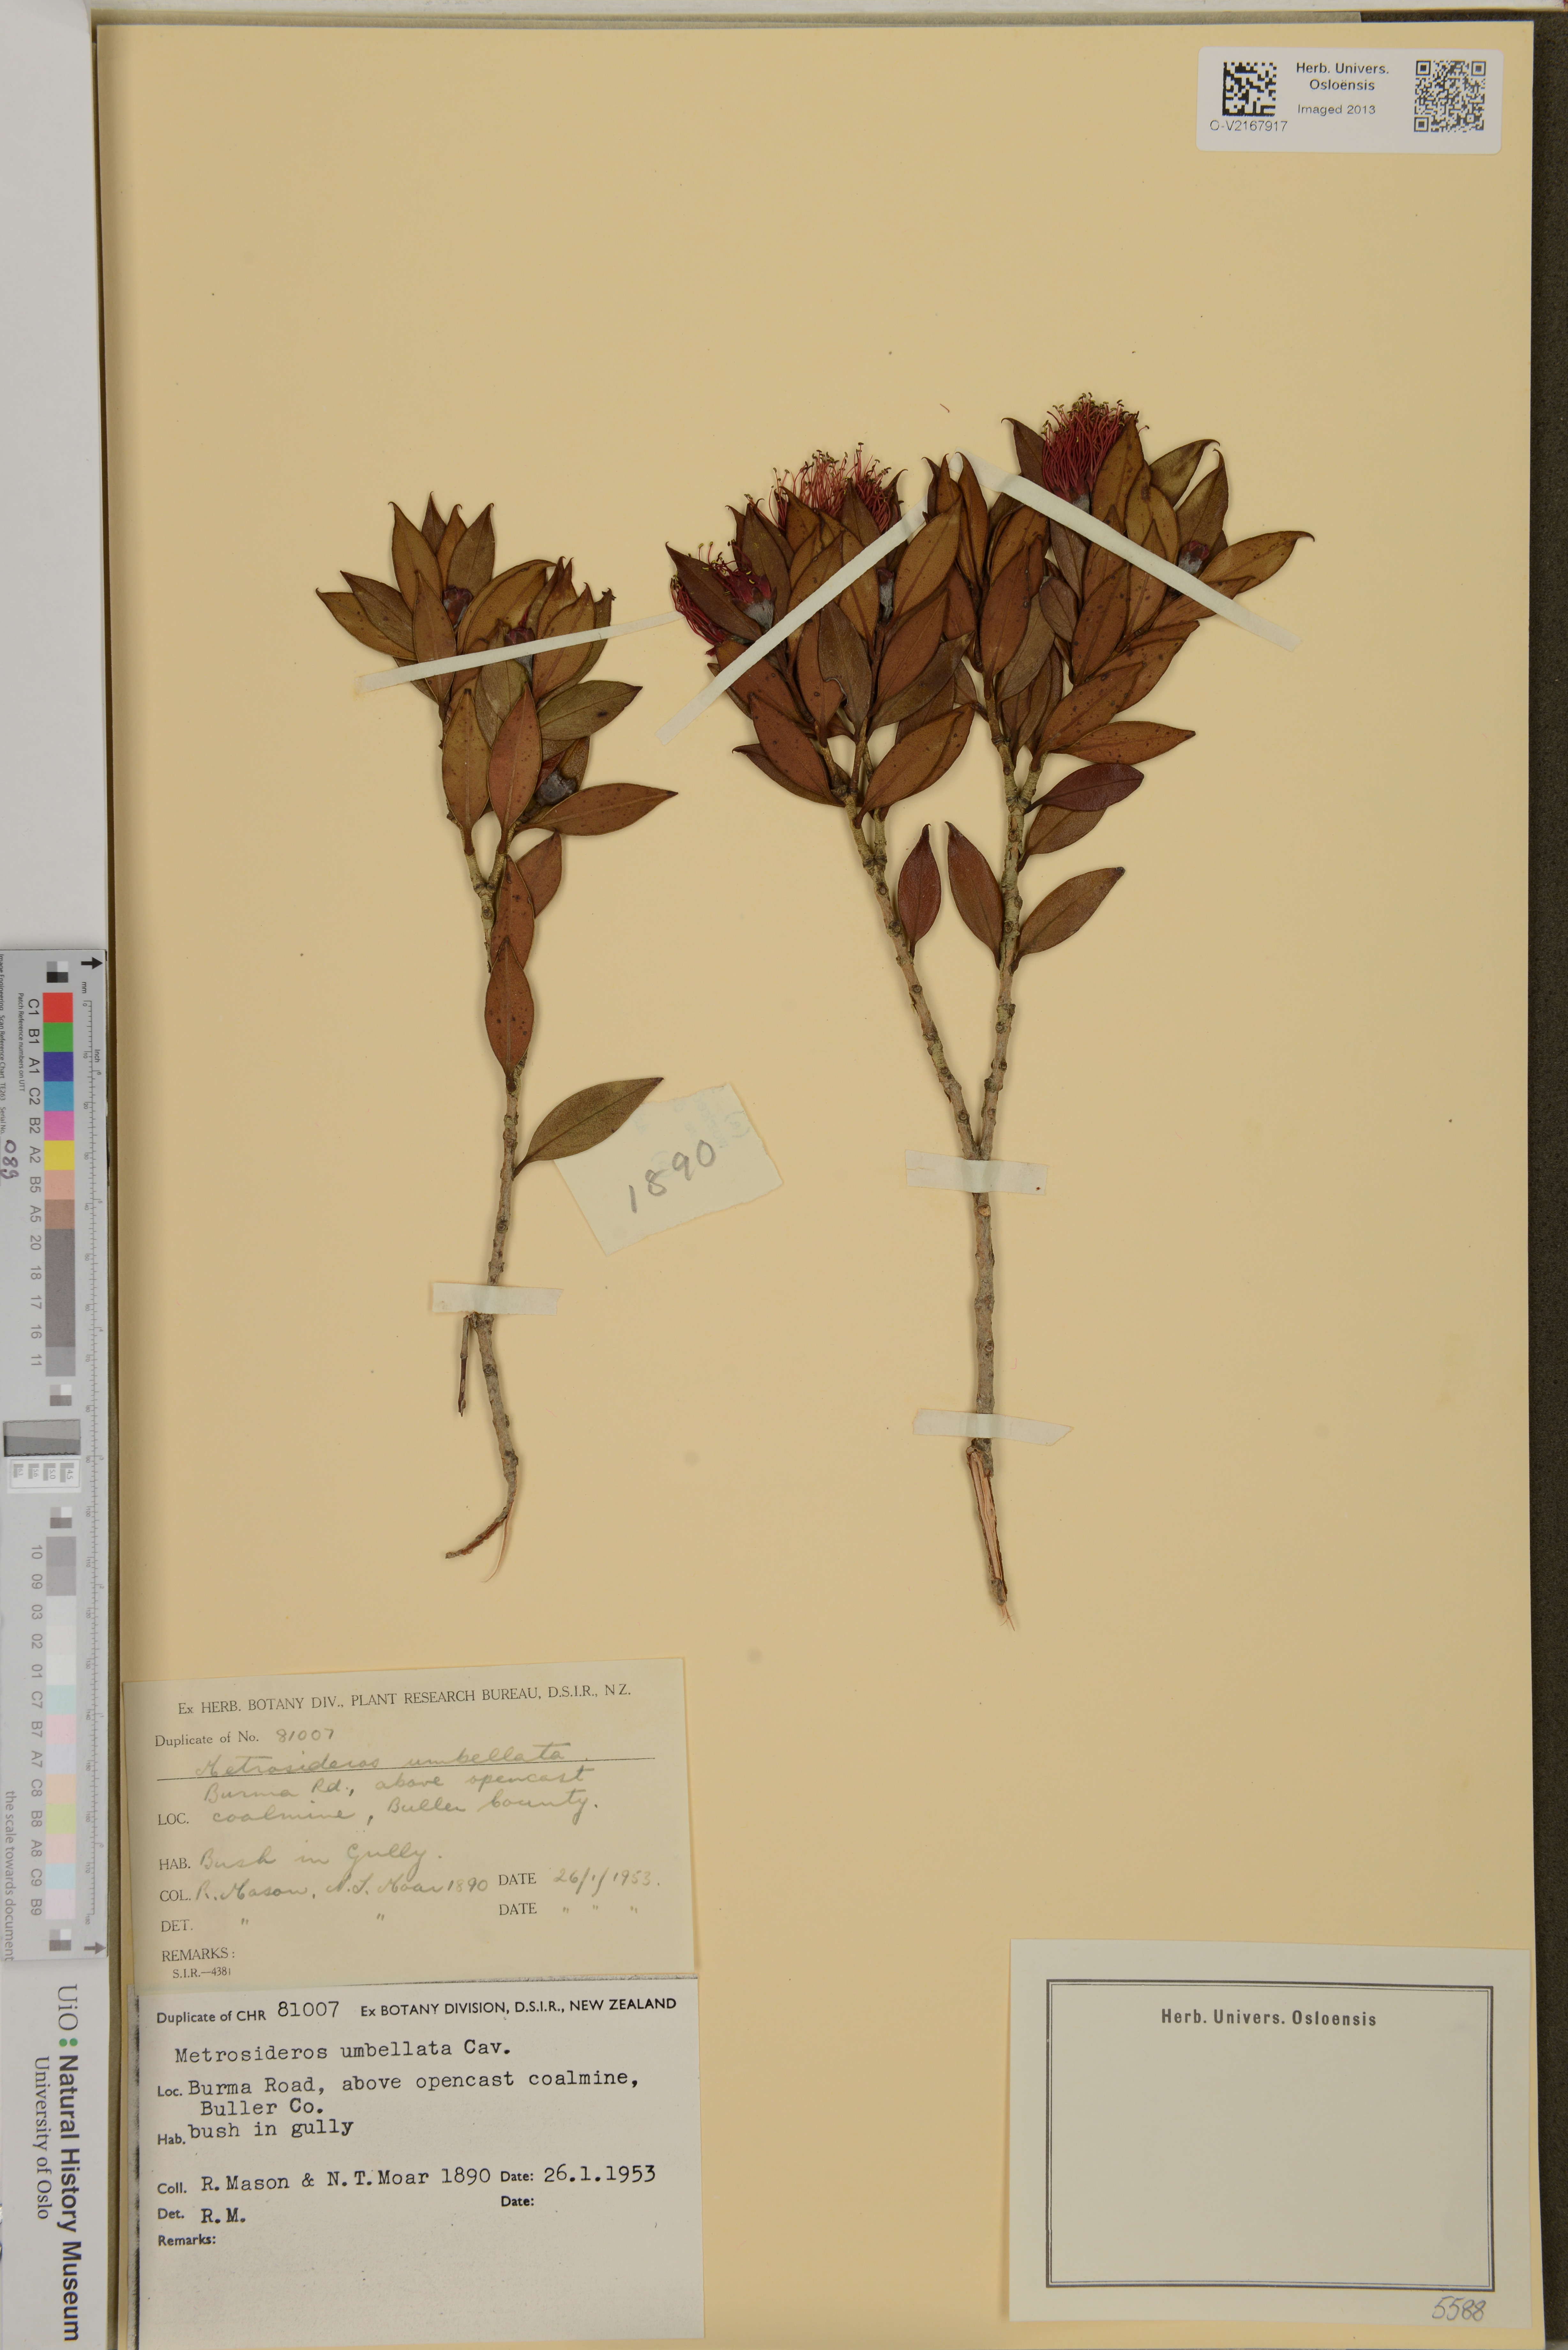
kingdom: Plantae
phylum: Tracheophyta
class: Magnoliopsida
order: Myrtales
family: Myrtaceae
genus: Metrosideros
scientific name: Metrosideros umbellata
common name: Southern rata
